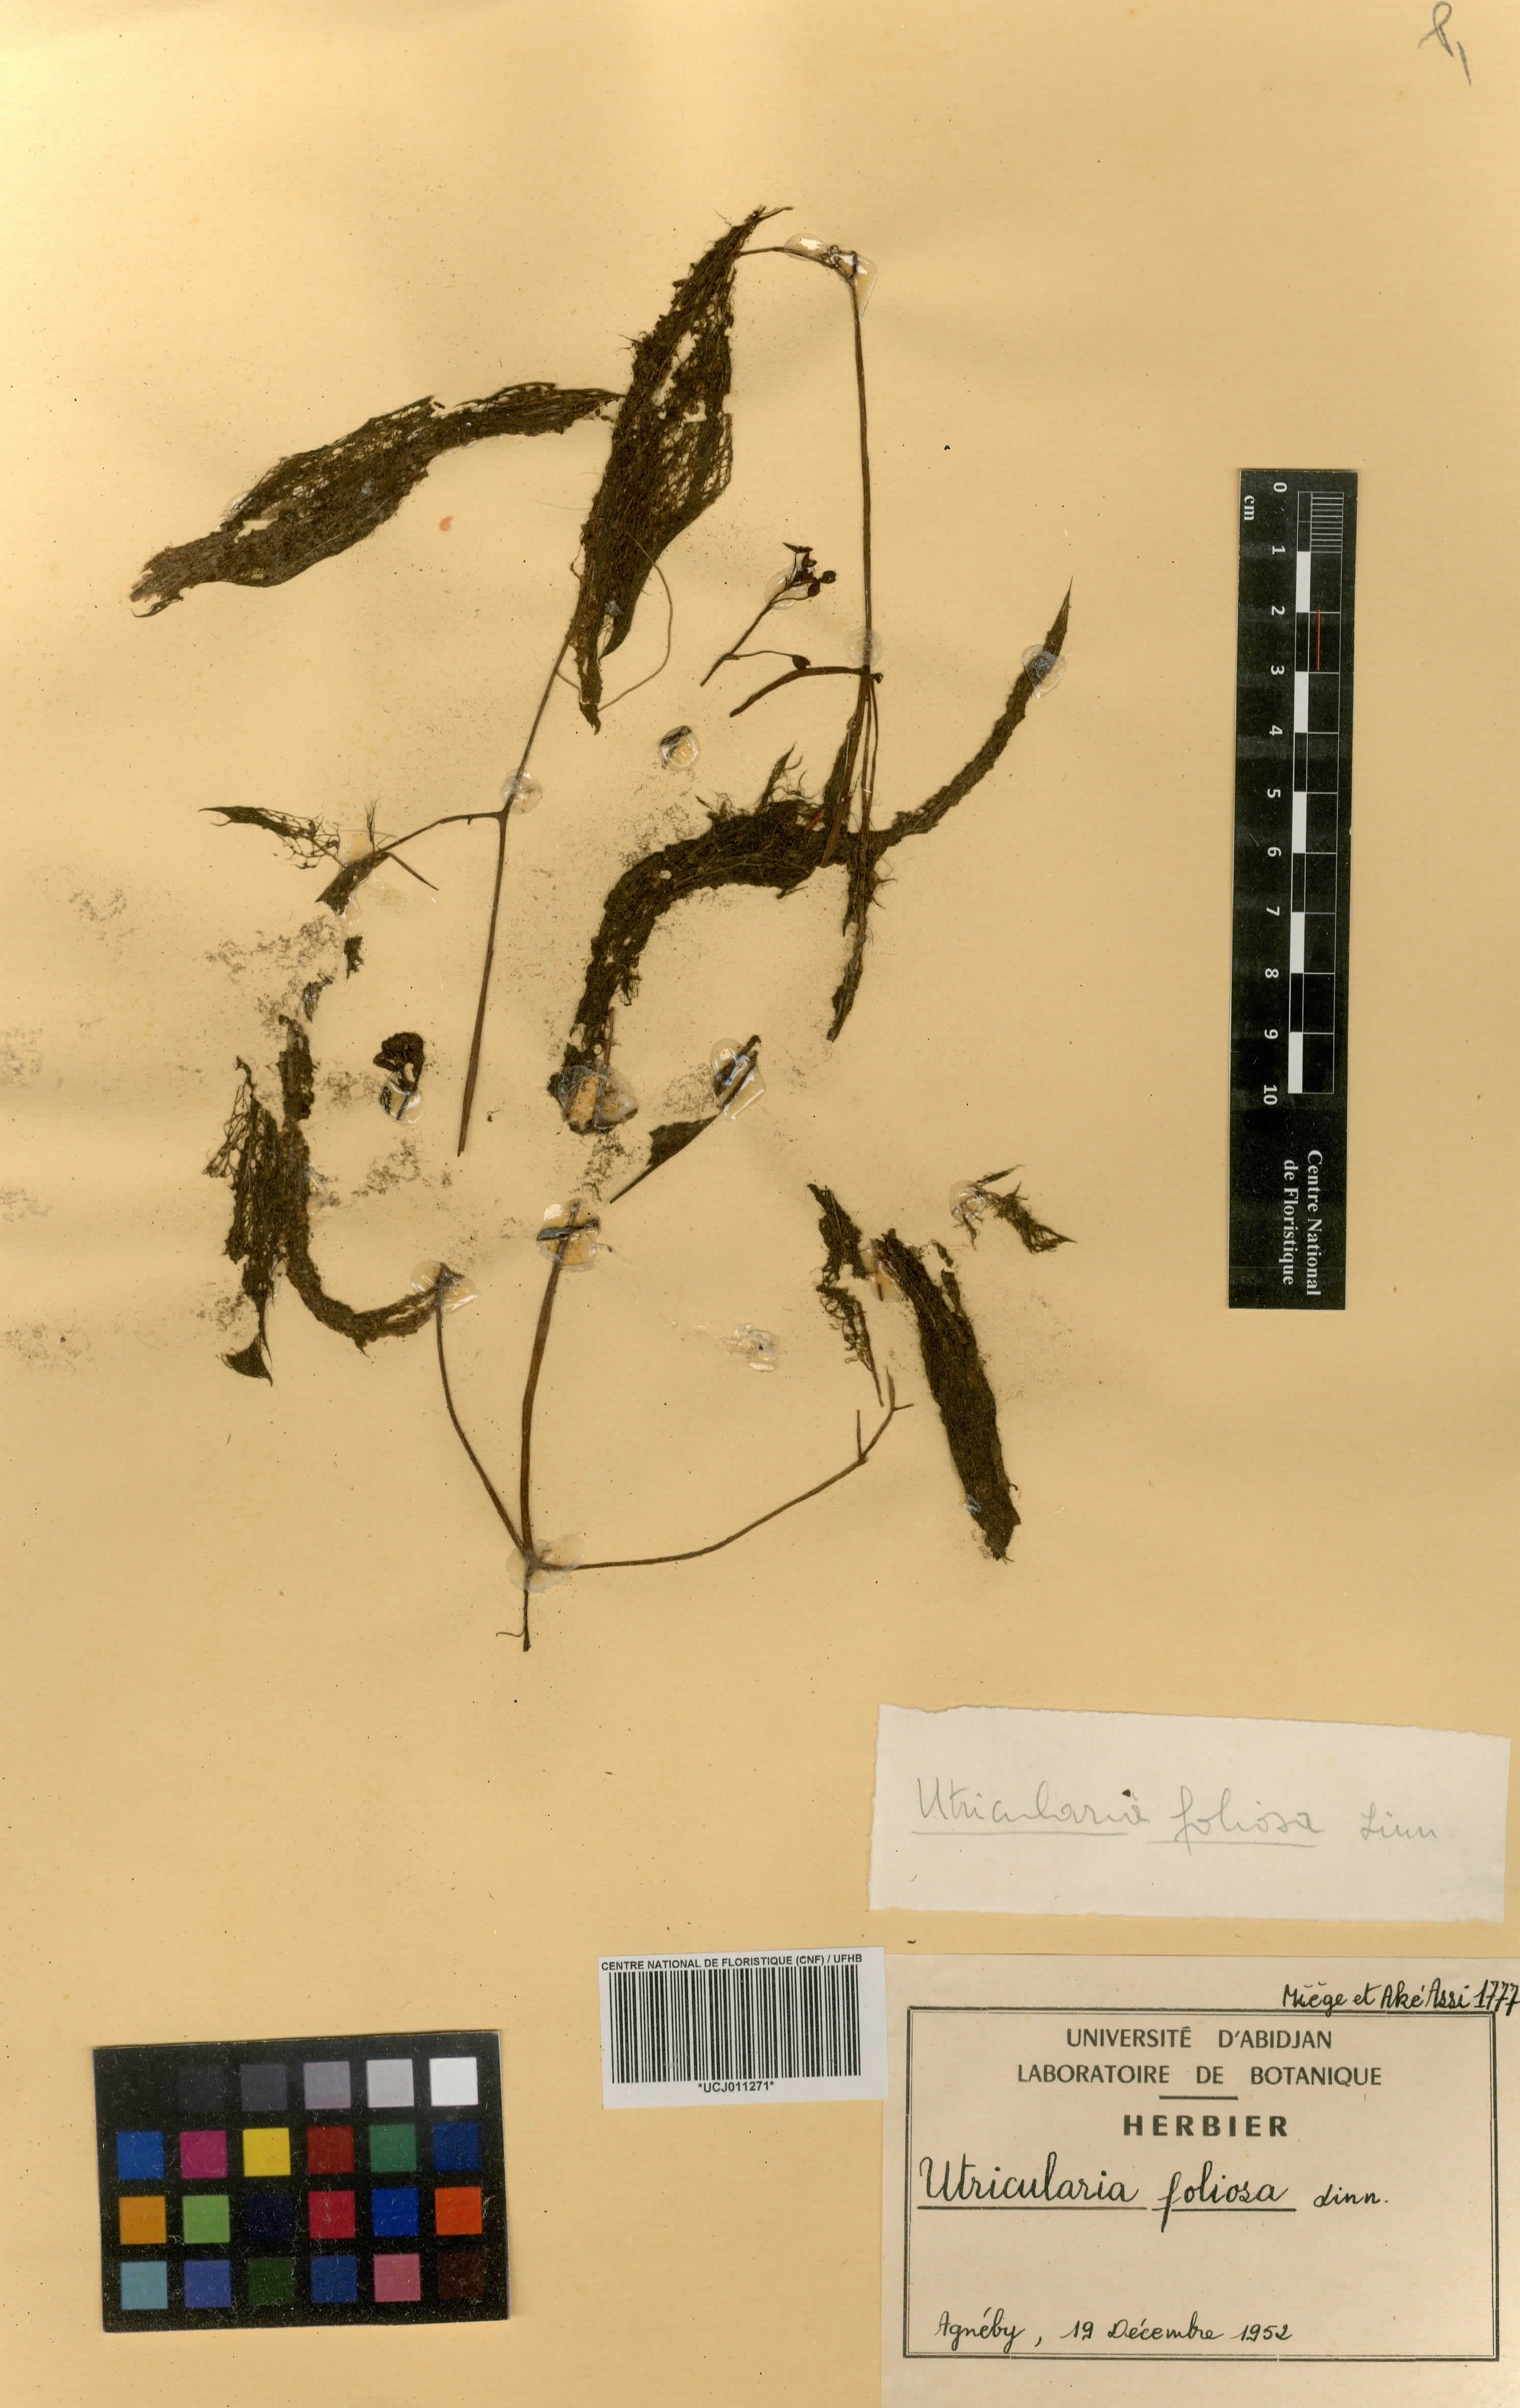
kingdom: Plantae
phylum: Tracheophyta
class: Magnoliopsida
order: Lamiales
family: Lentibulariaceae
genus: Utricularia
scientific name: Utricularia foliosa
